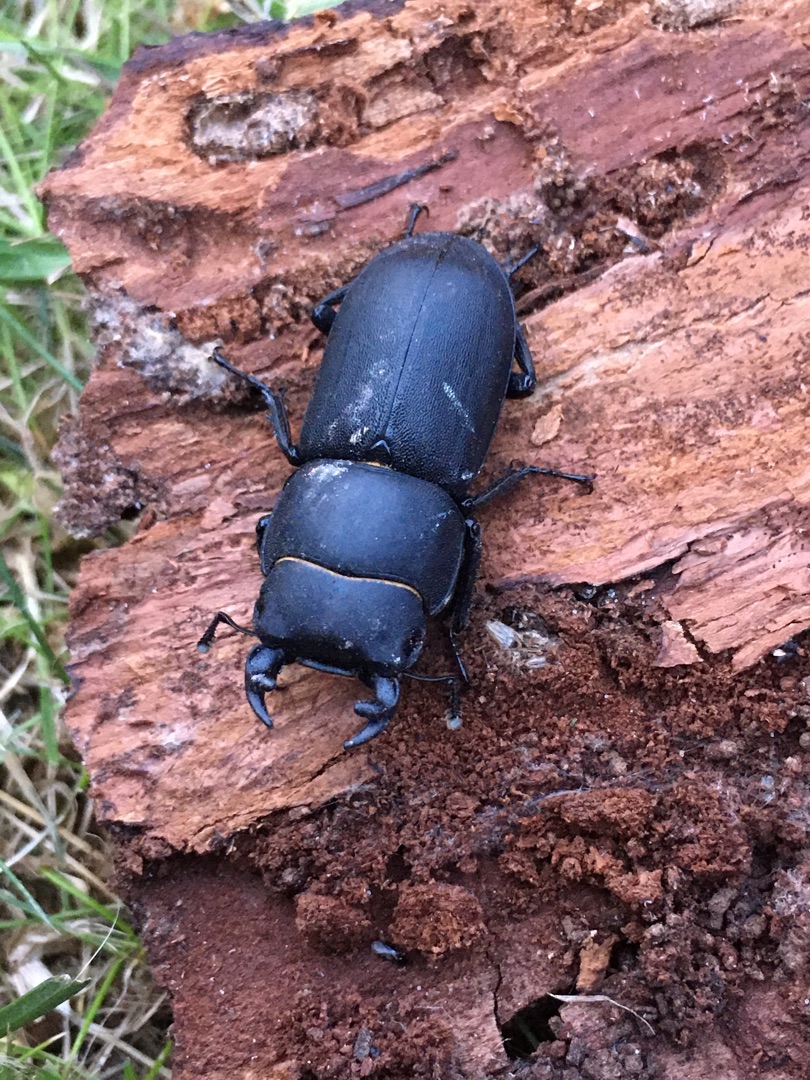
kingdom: Animalia
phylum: Arthropoda
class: Insecta
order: Coleoptera
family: Lucanidae
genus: Dorcus
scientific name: Dorcus parallelipipedus
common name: Bøghjort
